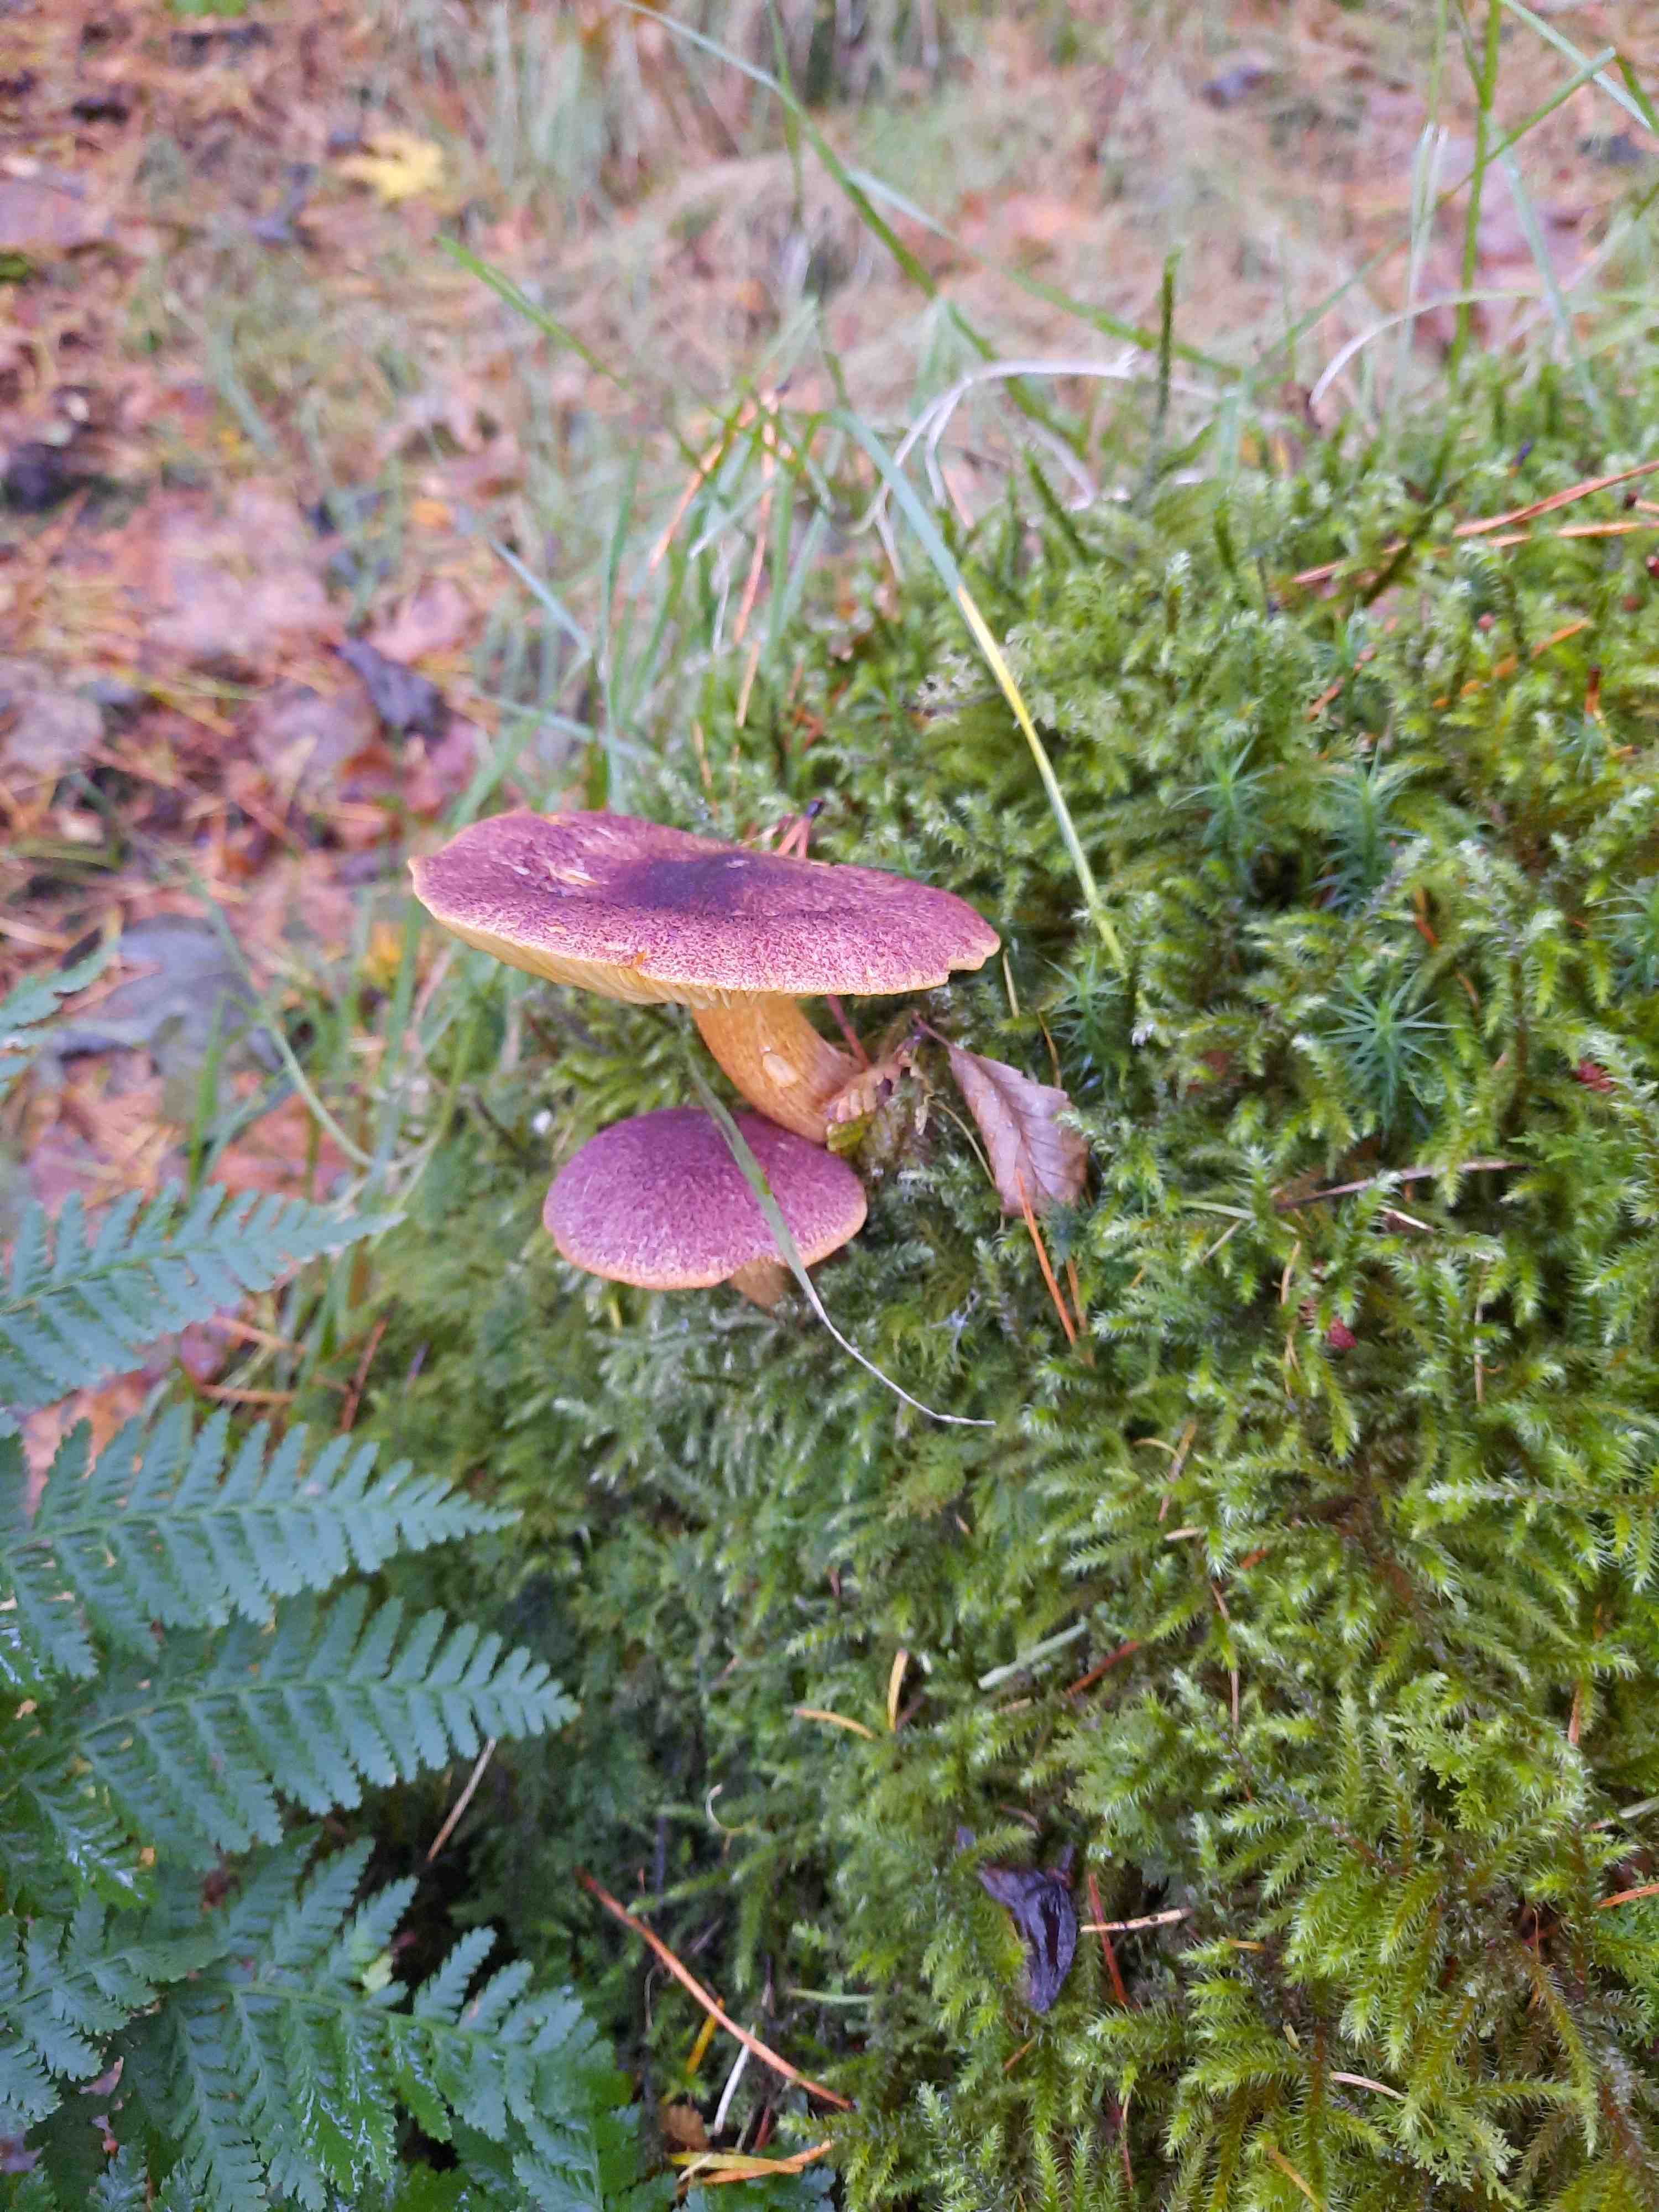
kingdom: Fungi
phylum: Basidiomycota
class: Agaricomycetes
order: Agaricales
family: Tricholomataceae
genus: Tricholomopsis
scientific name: Tricholomopsis rutilans
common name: purpur-væbnerhat
